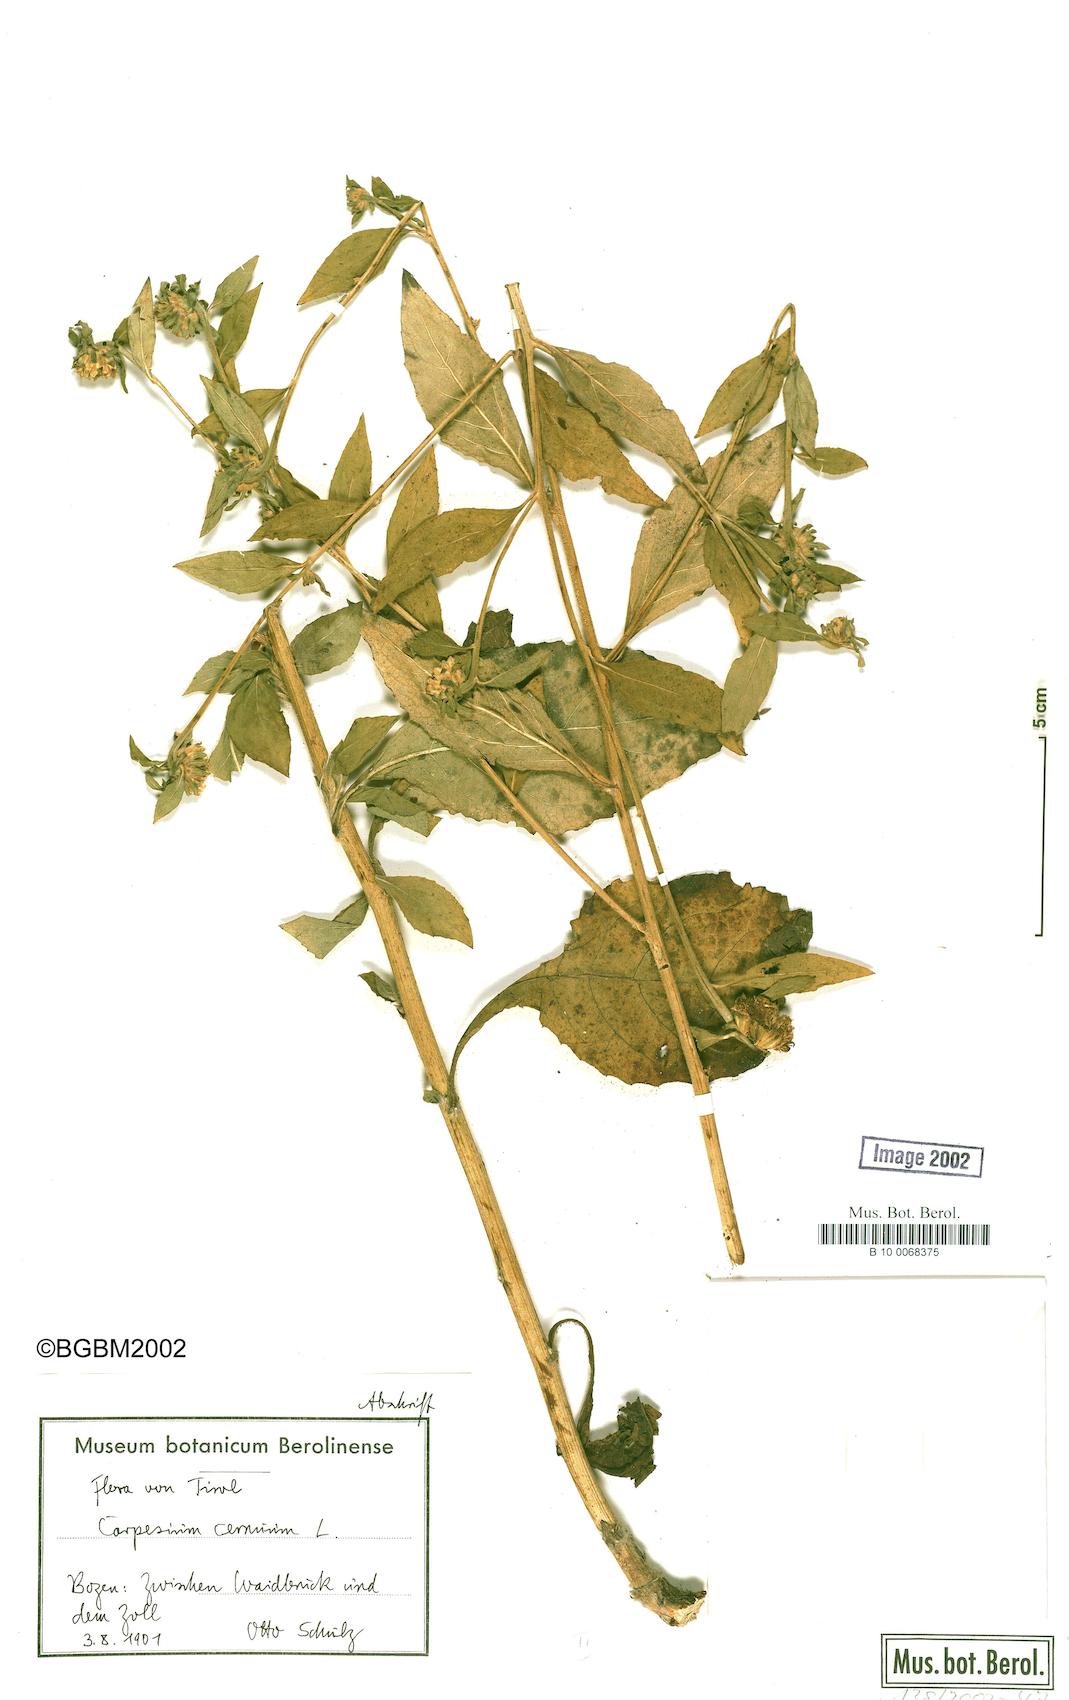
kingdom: Plantae
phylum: Tracheophyta
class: Magnoliopsida
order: Asterales
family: Asteraceae
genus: Carpesium
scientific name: Carpesium cernuum
